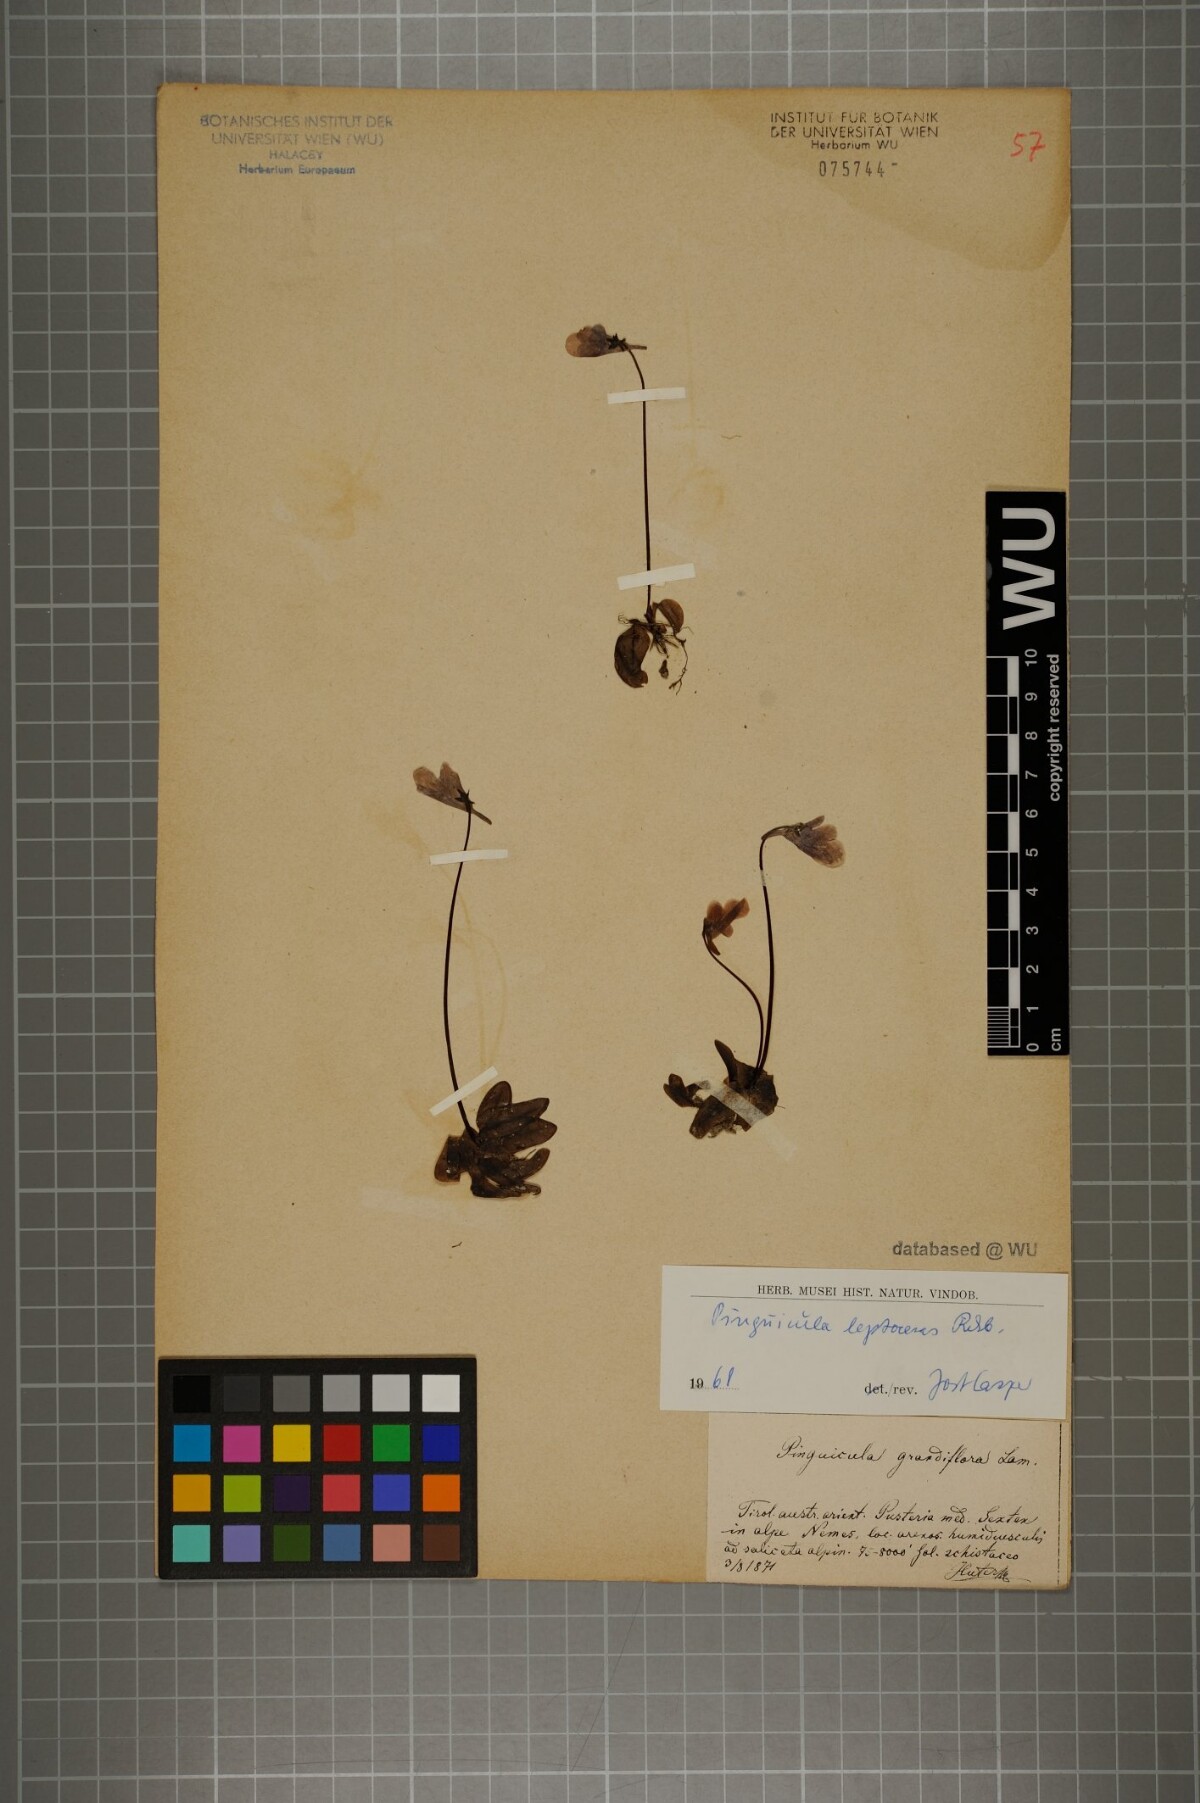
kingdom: Plantae
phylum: Tracheophyta
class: Magnoliopsida
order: Lamiales
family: Lentibulariaceae
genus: Pinguicula
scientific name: Pinguicula leptoceras
